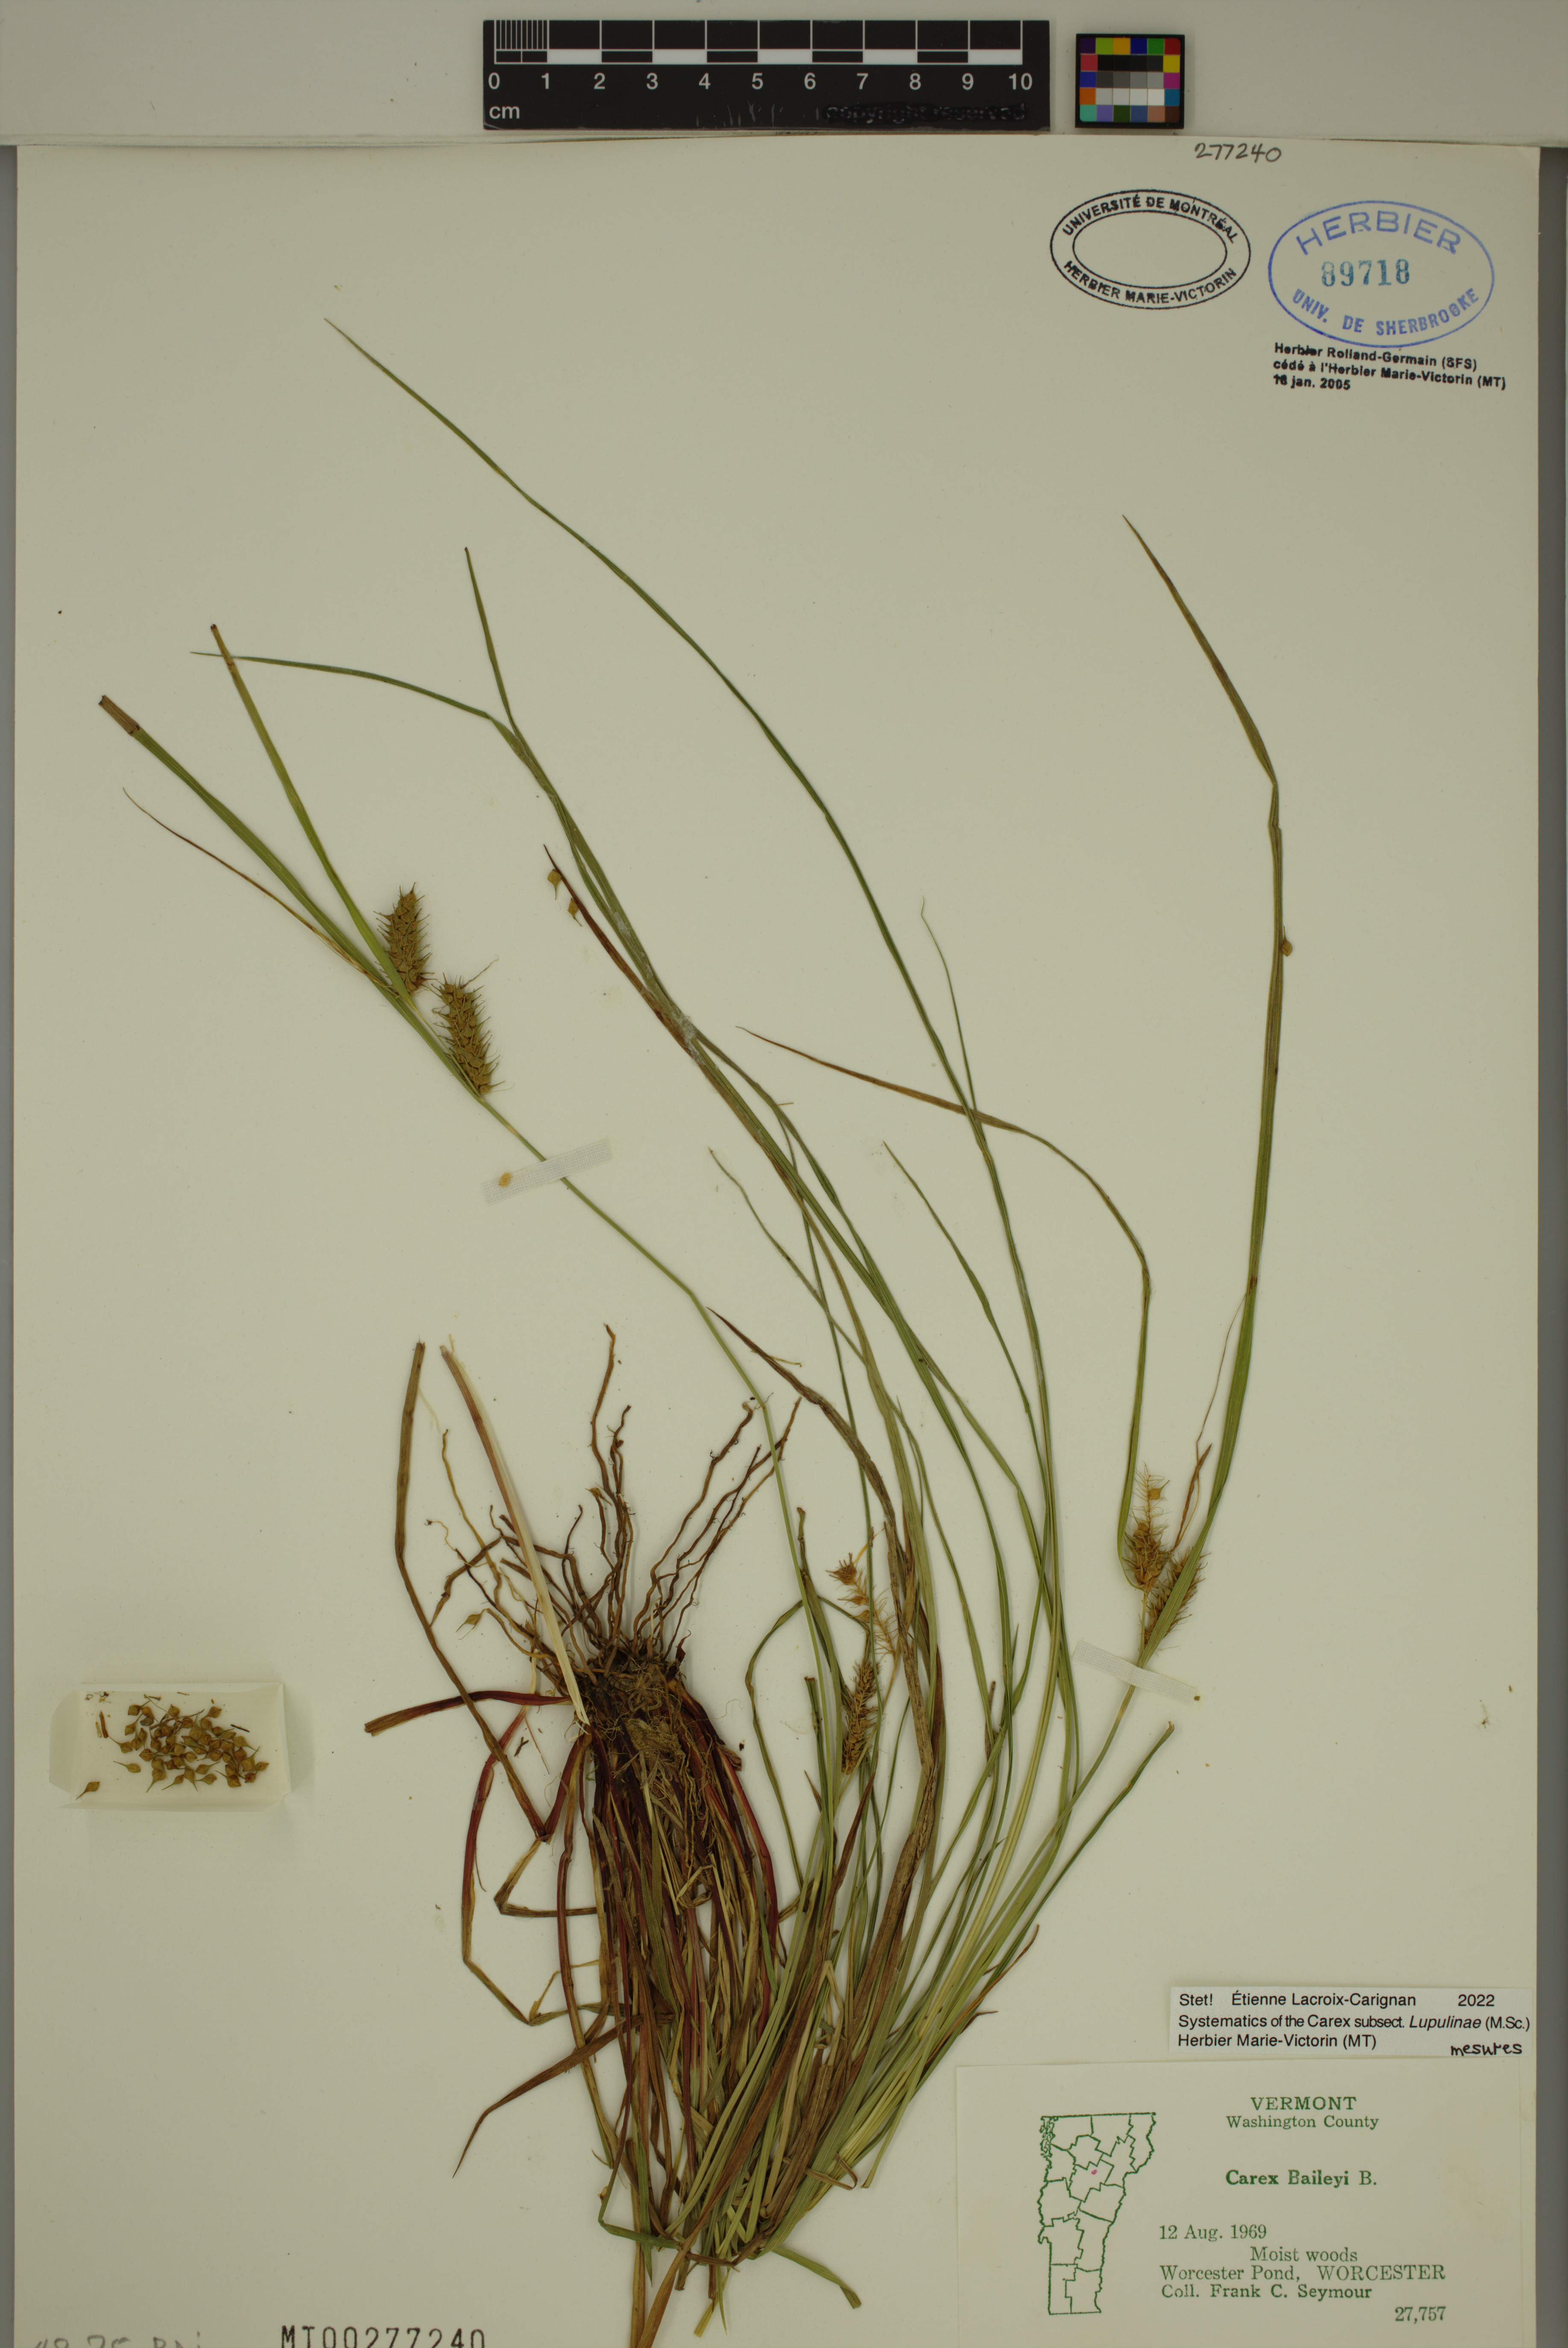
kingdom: Plantae
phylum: Tracheophyta
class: Liliopsida
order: Poales
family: Cyperaceae
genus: Carex
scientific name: Carex baileyi
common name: Bailey's sedge
